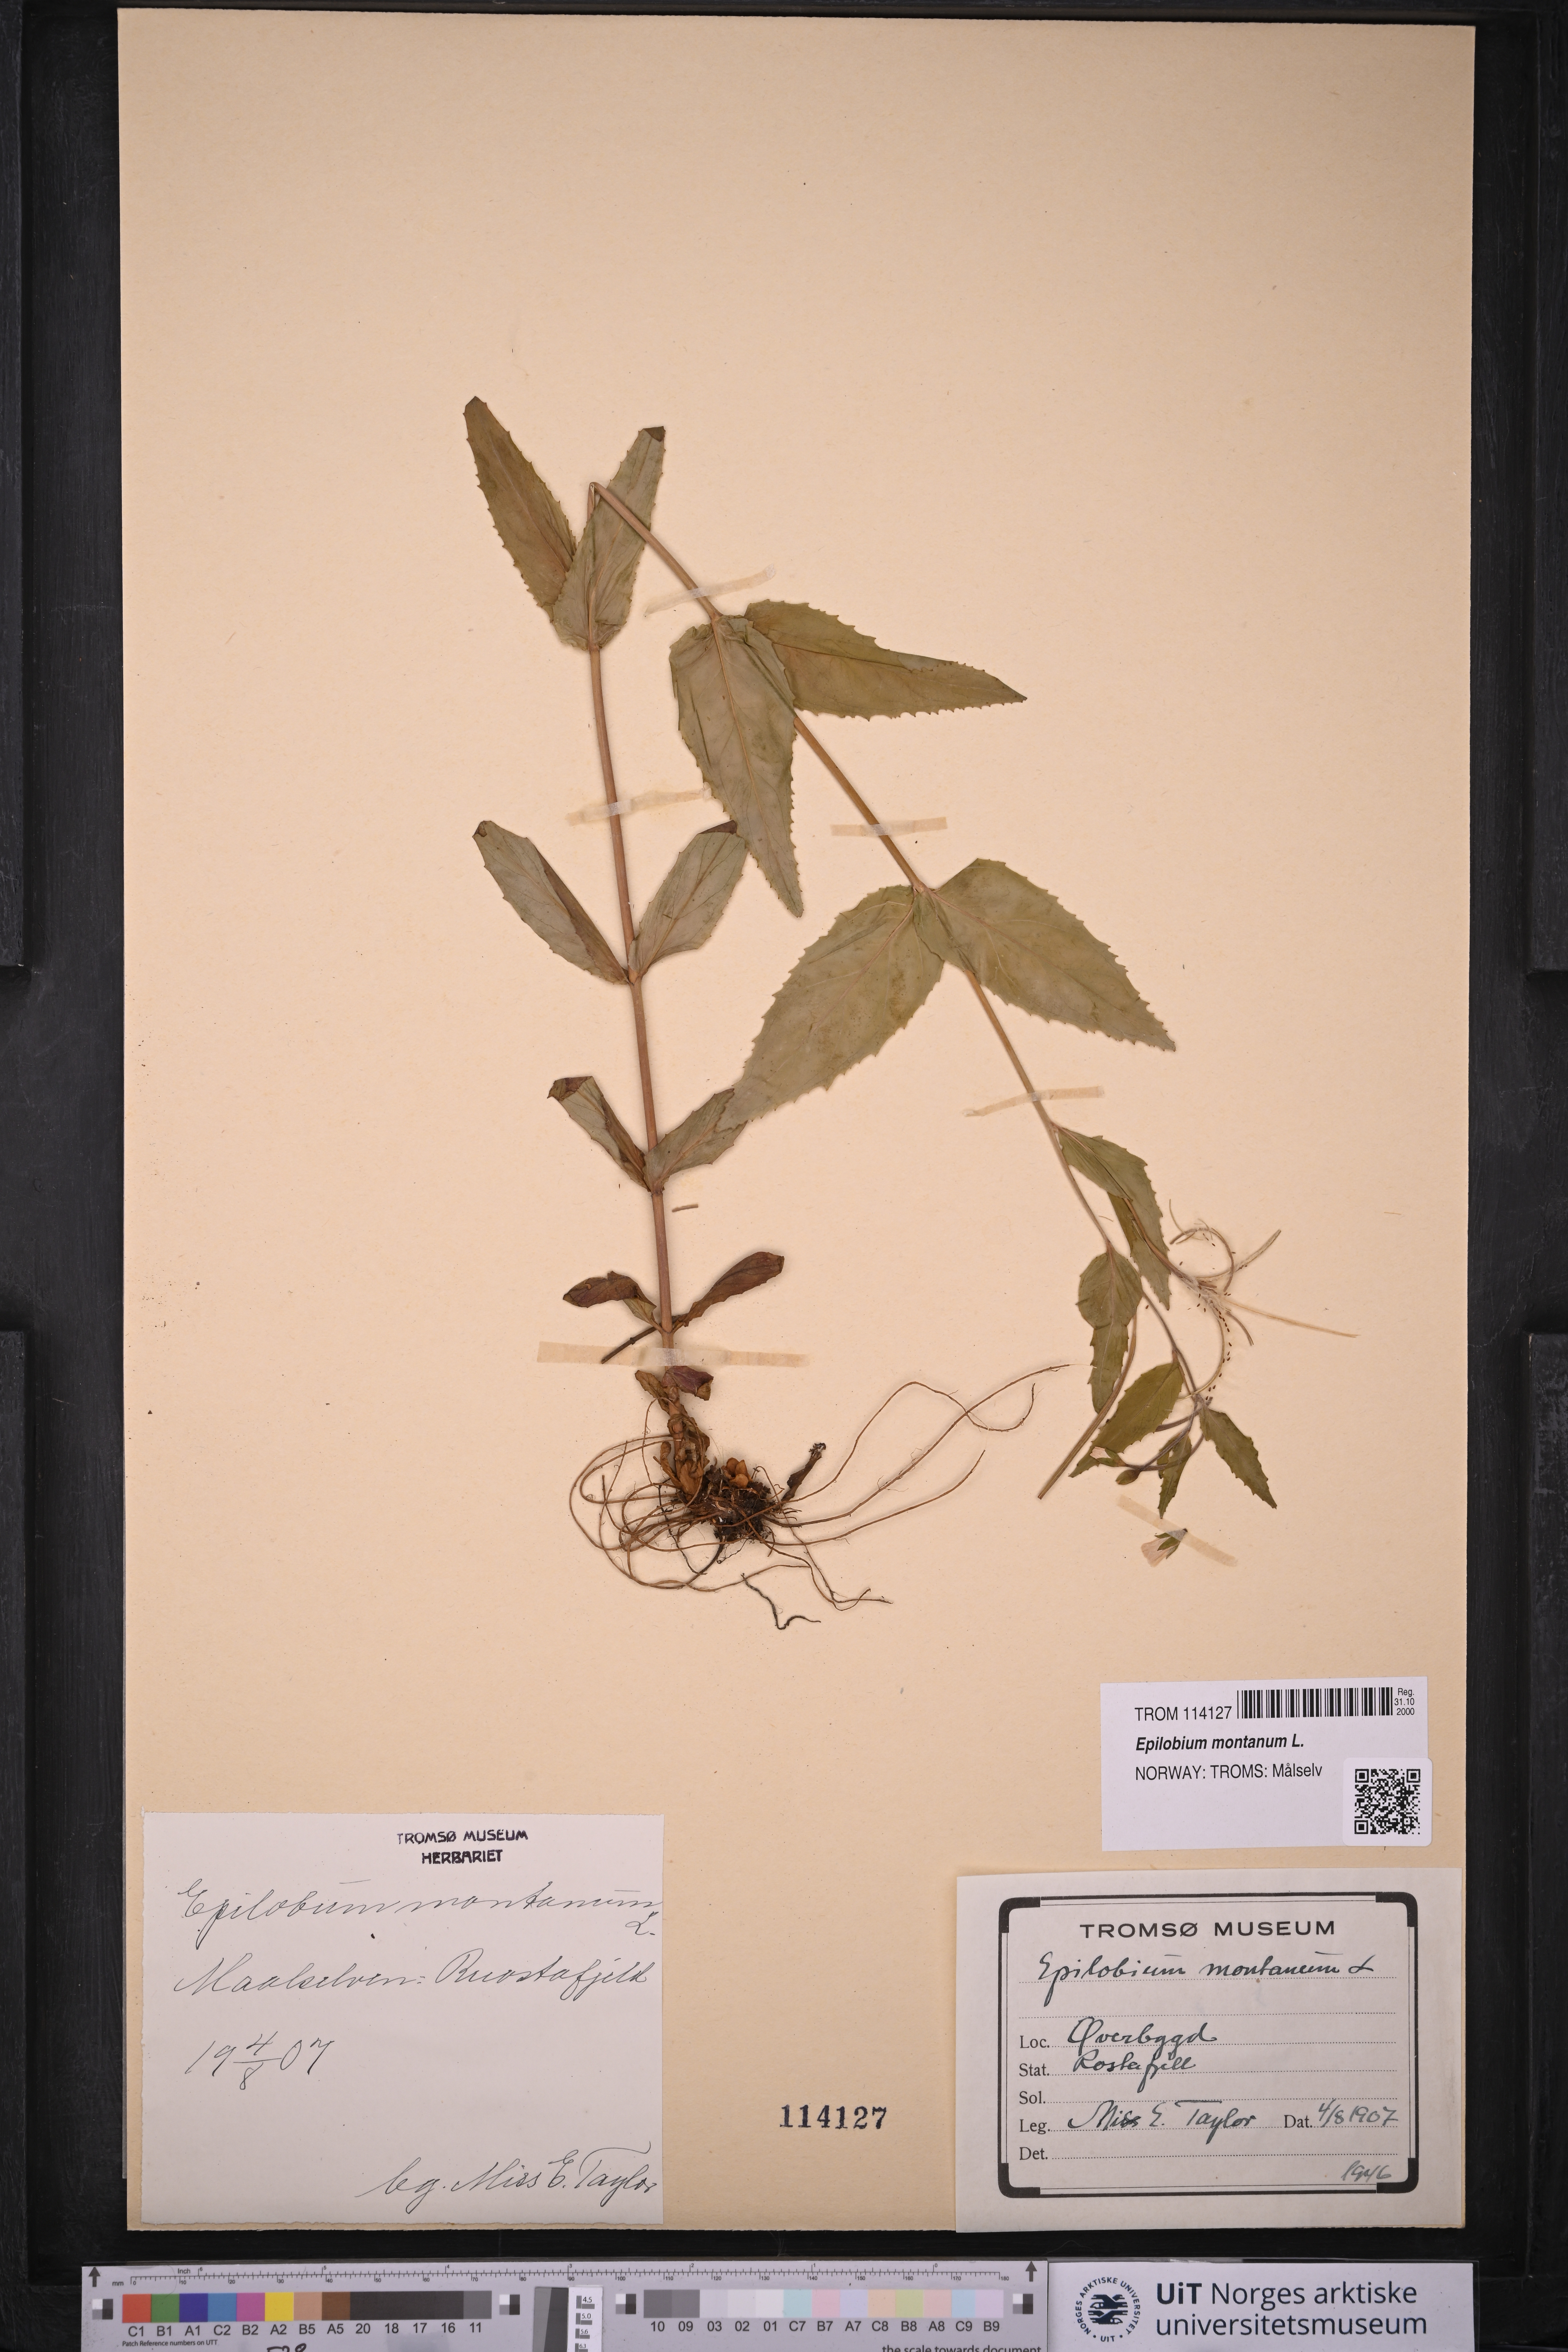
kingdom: Plantae
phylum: Tracheophyta
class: Magnoliopsida
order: Myrtales
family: Onagraceae
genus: Epilobium
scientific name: Epilobium montanum
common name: Broad-leaved willowherb
